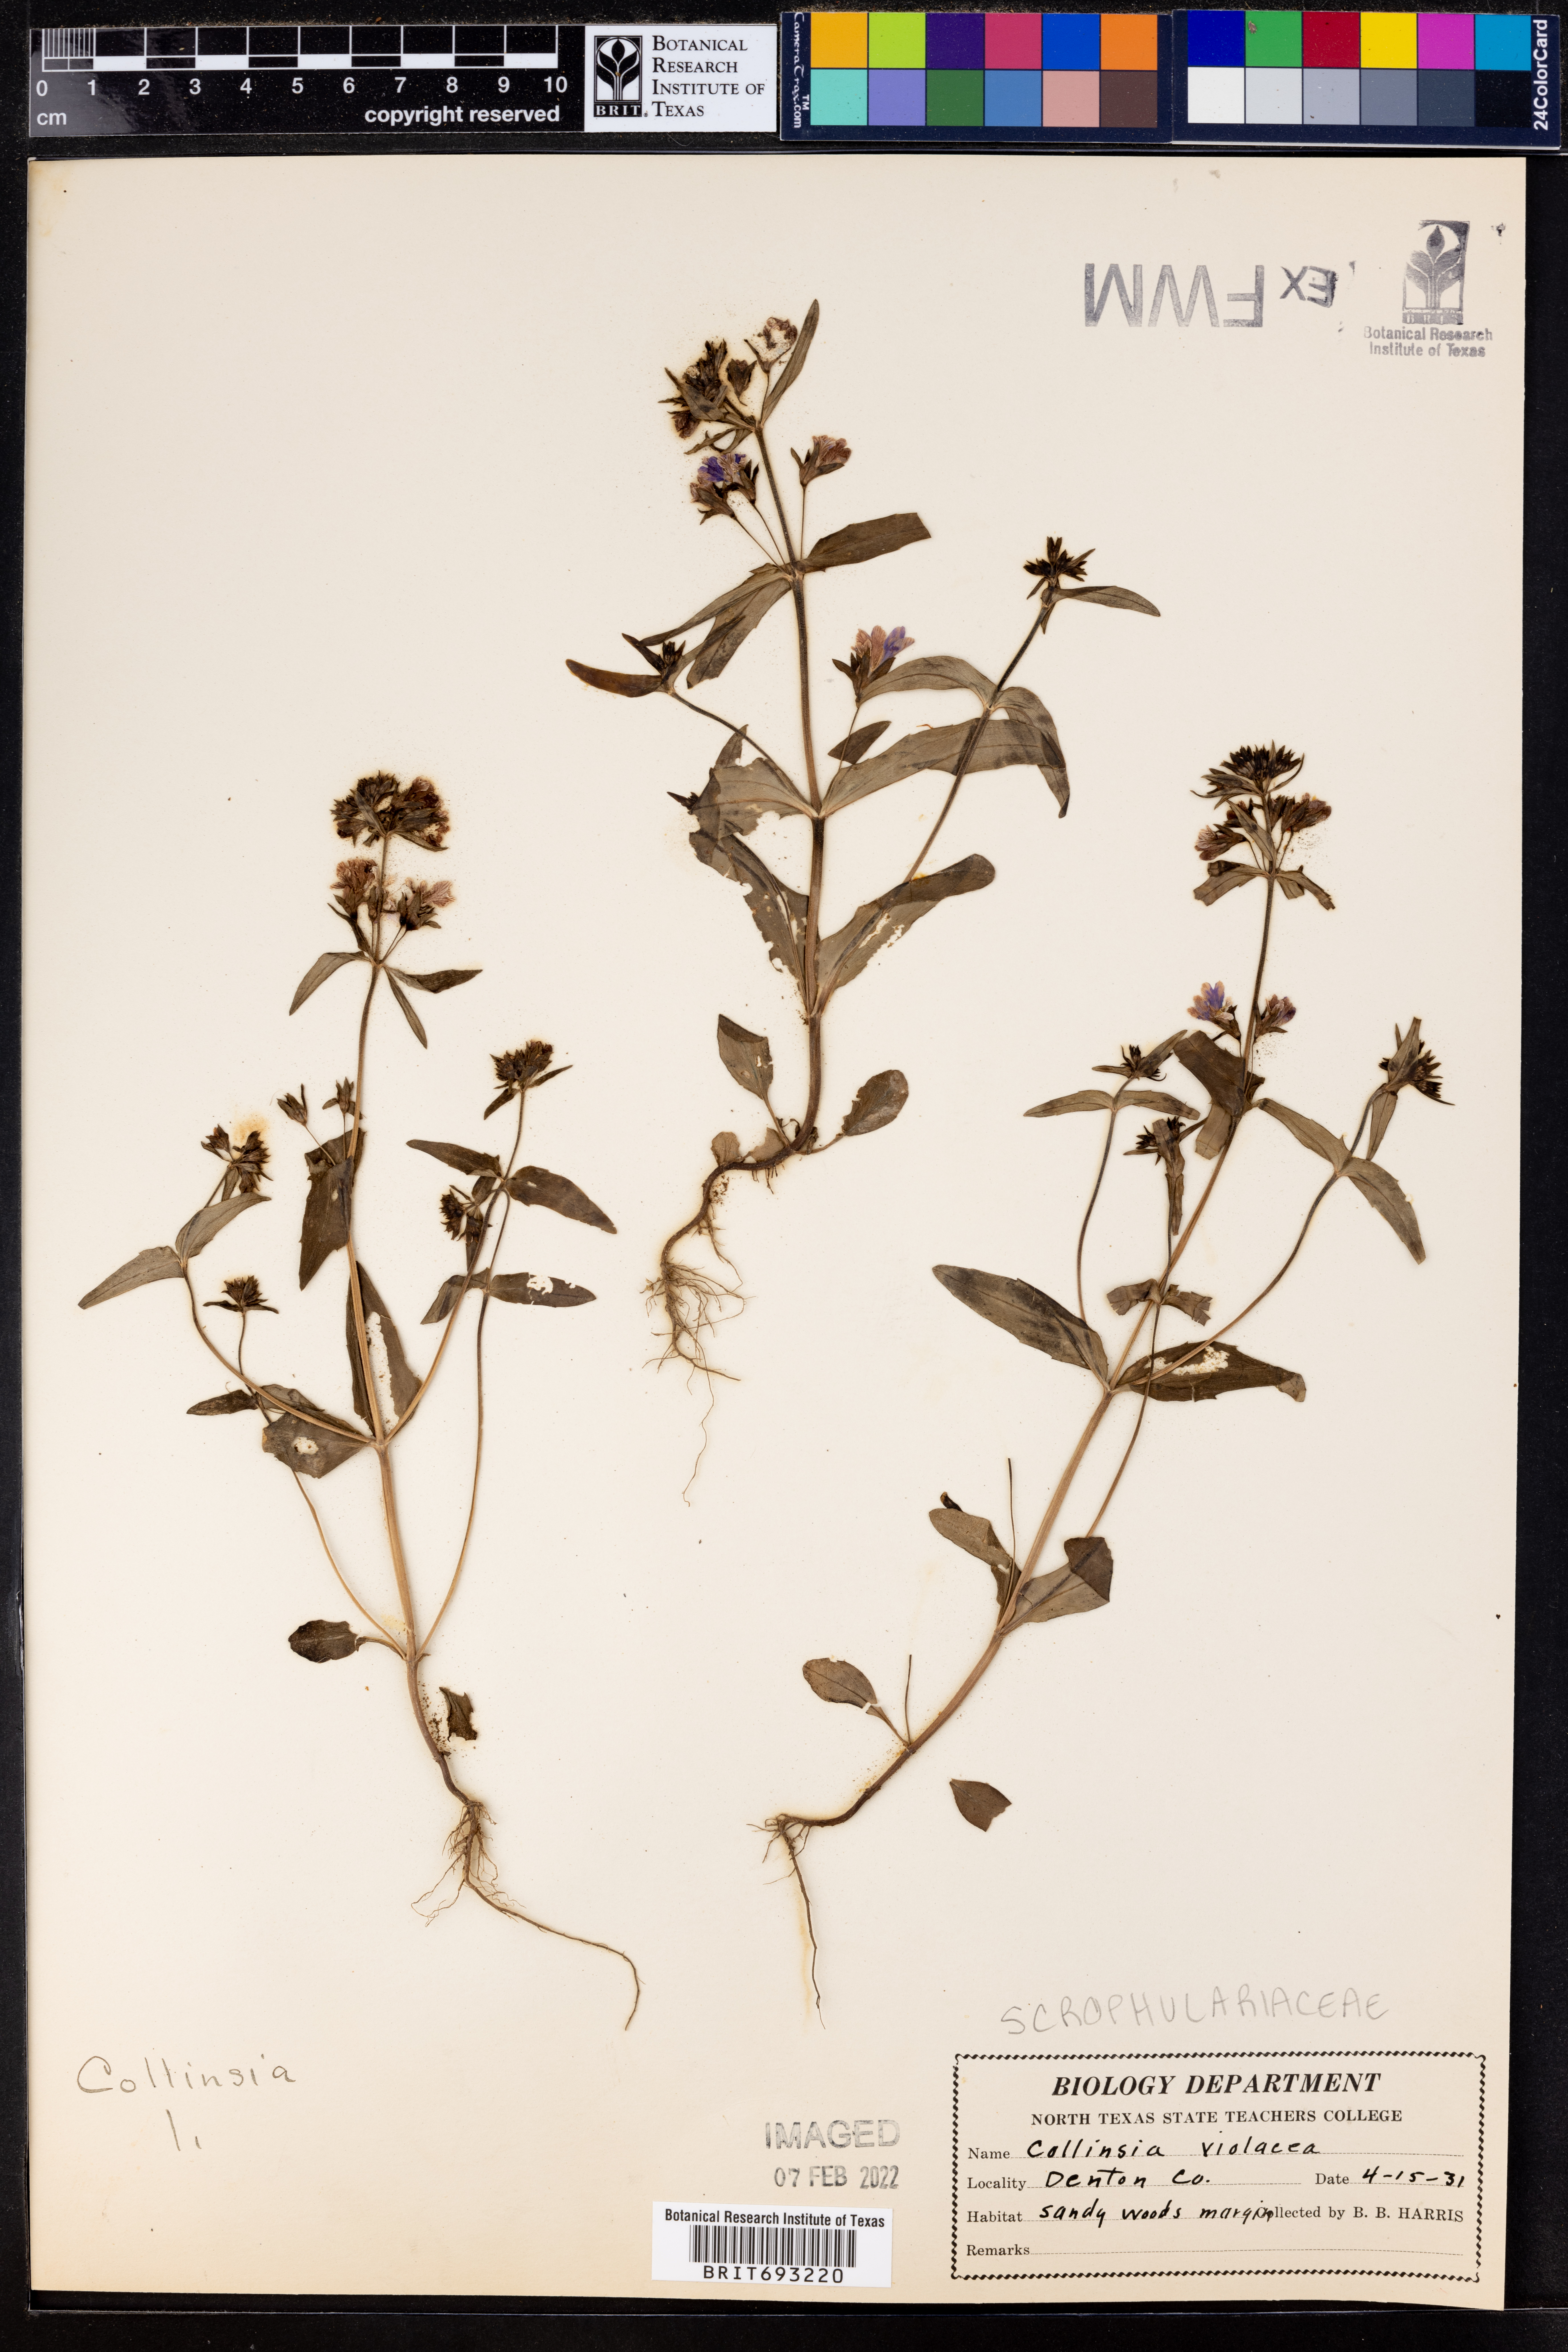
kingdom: Plantae
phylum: Tracheophyta
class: Magnoliopsida
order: Lamiales
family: Plantaginaceae
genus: Collinsia
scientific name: Collinsia violacea
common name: Violet collinsia
